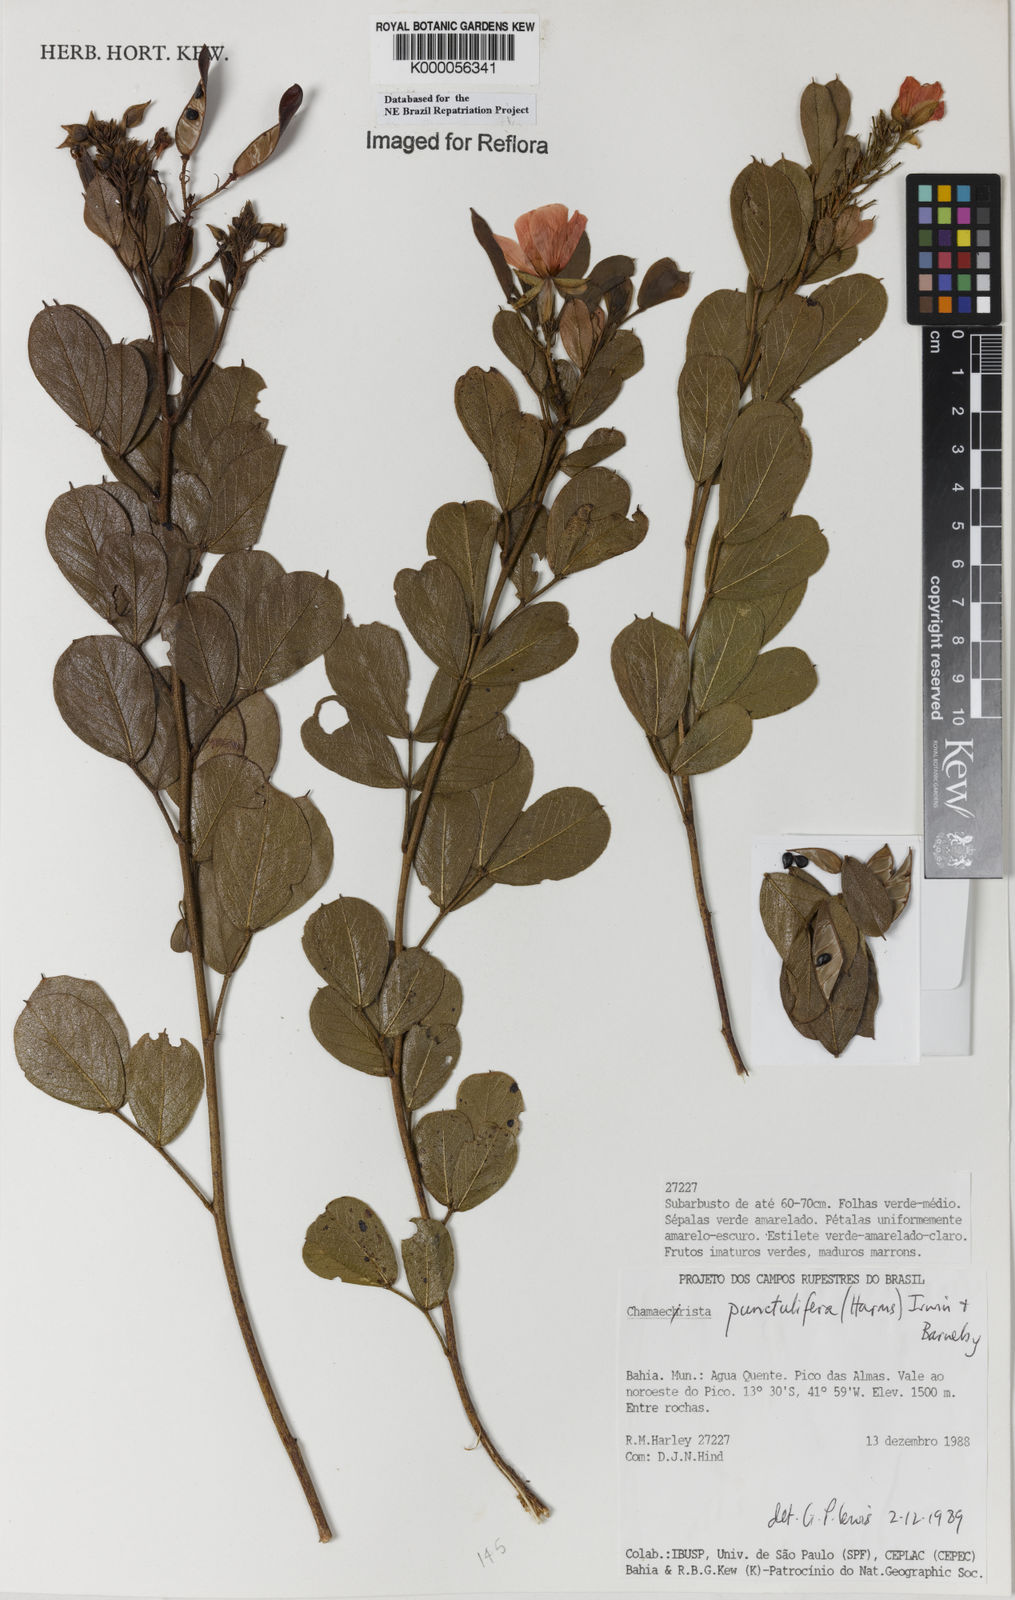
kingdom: Plantae
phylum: Tracheophyta
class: Magnoliopsida
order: Fabales
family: Fabaceae
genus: Chamaecrista
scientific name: Chamaecrista punctulifera
